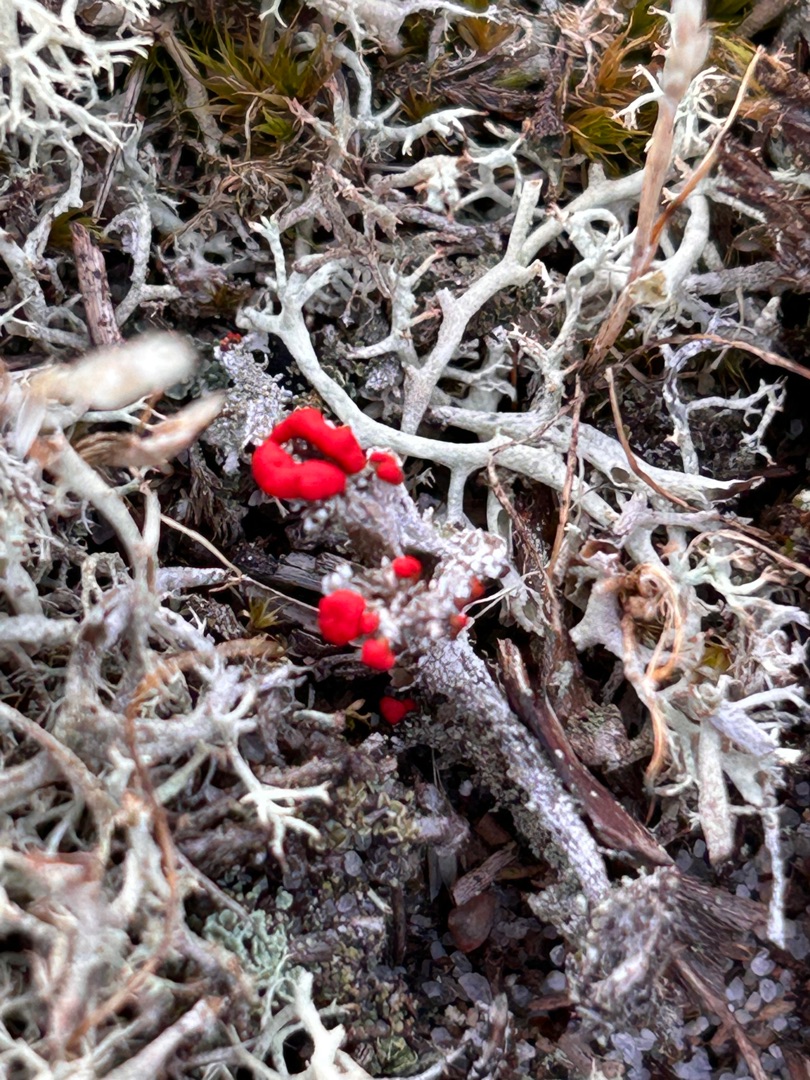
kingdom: Fungi
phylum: Ascomycota
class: Lecanoromycetes
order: Lecanorales
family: Cladoniaceae
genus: Cladonia
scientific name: Cladonia floerkeana
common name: Lakrød bægerlav
